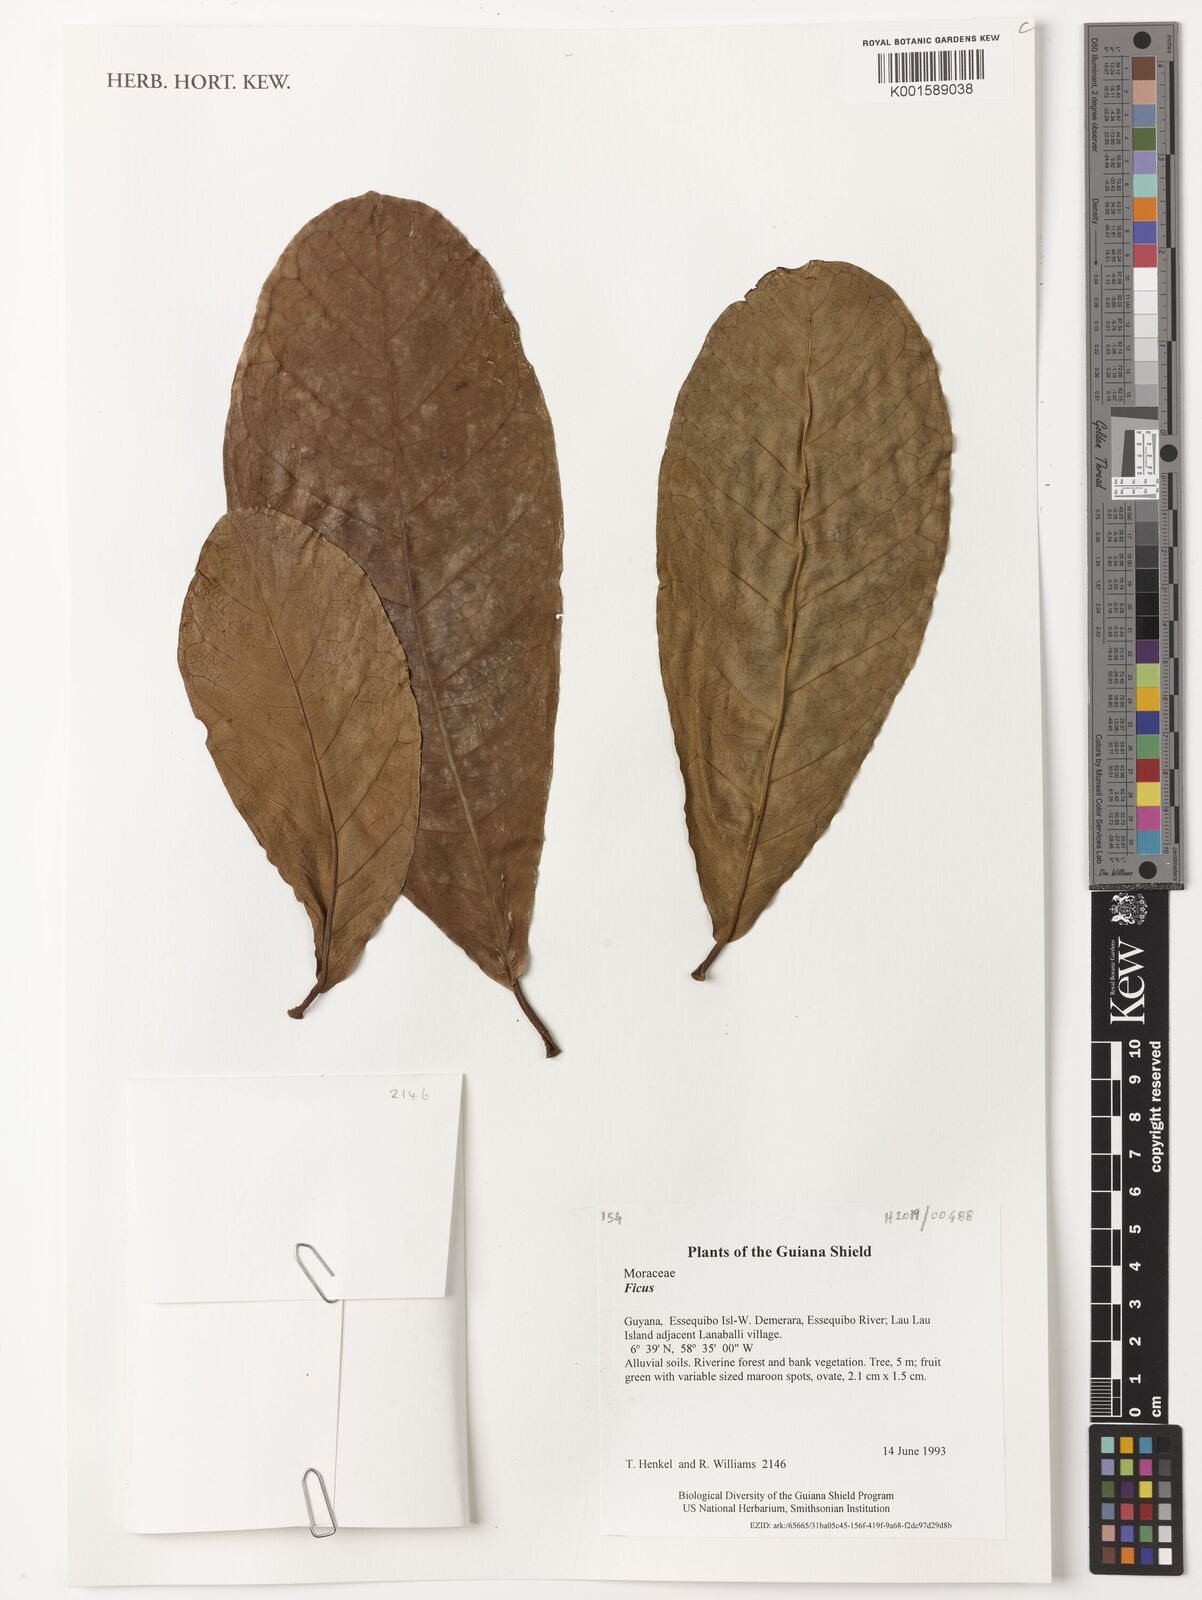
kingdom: Plantae
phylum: Tracheophyta
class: Magnoliopsida
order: Rosales
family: Moraceae
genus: Ficus
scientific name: Ficus
